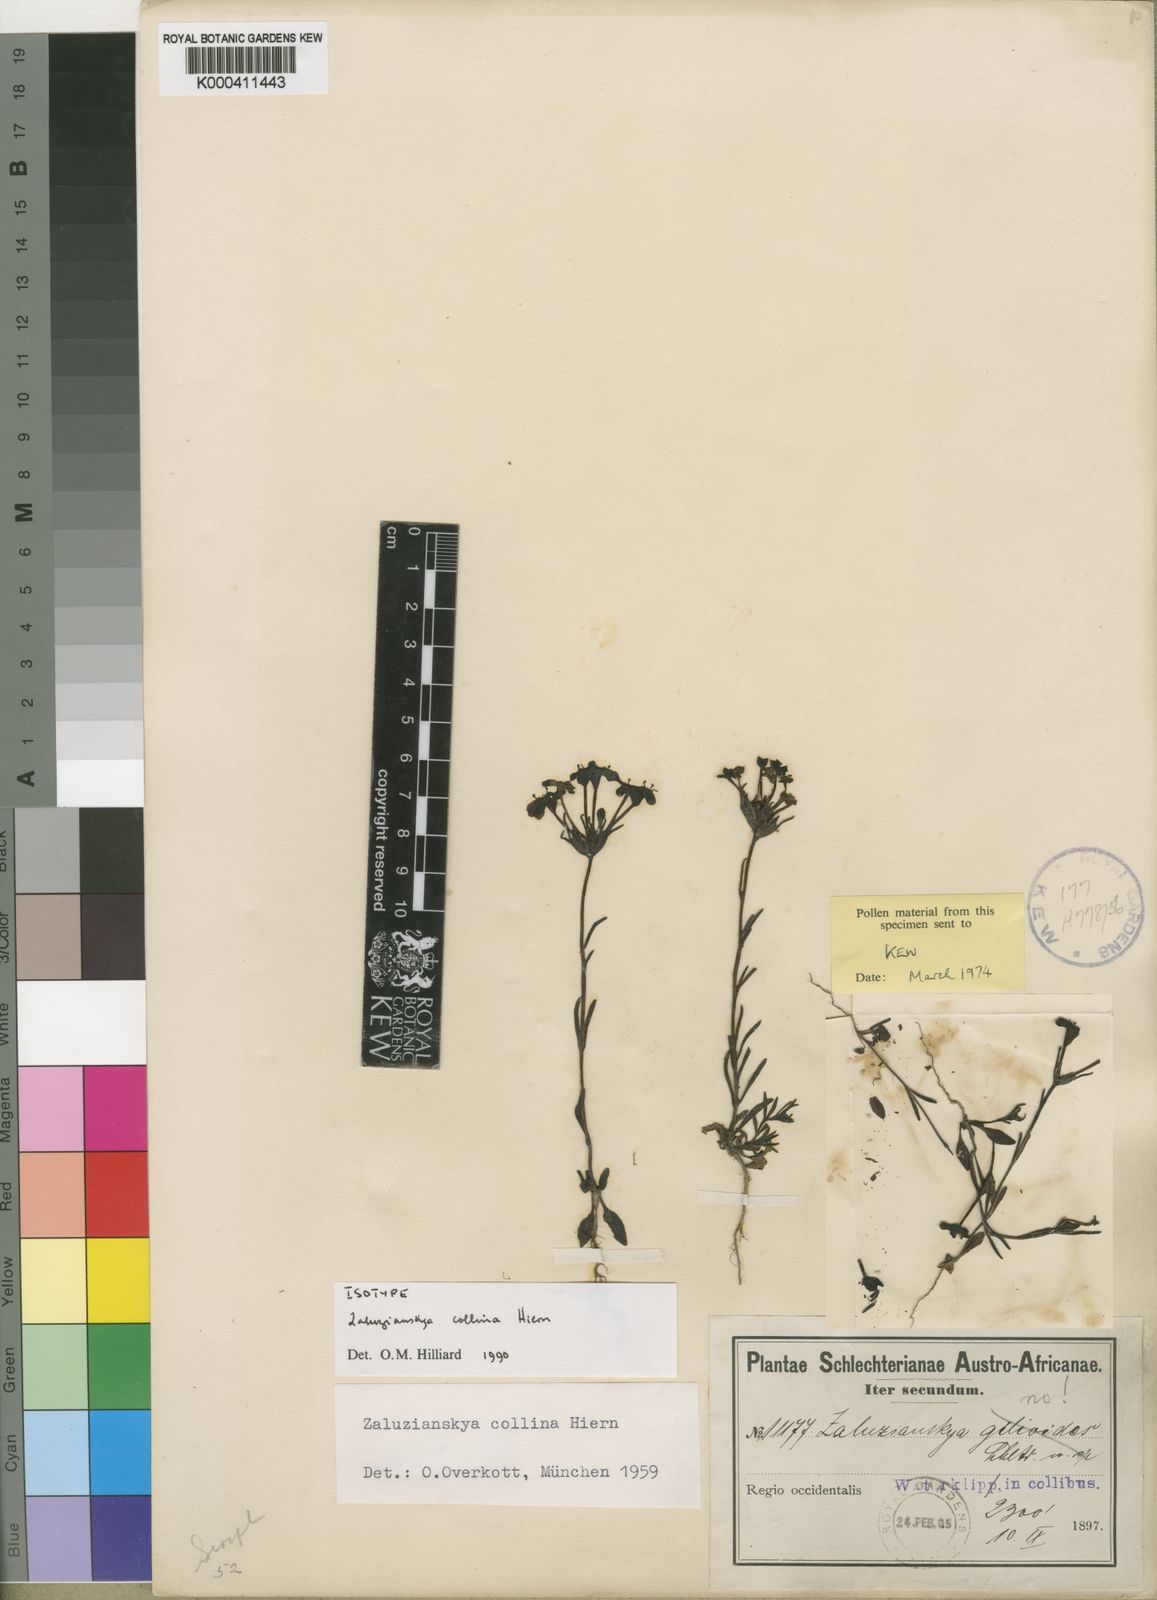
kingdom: Plantae
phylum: Tracheophyta
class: Magnoliopsida
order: Lamiales
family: Scrophulariaceae
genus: Zaluzianskya
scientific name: Zaluzianskya collina
